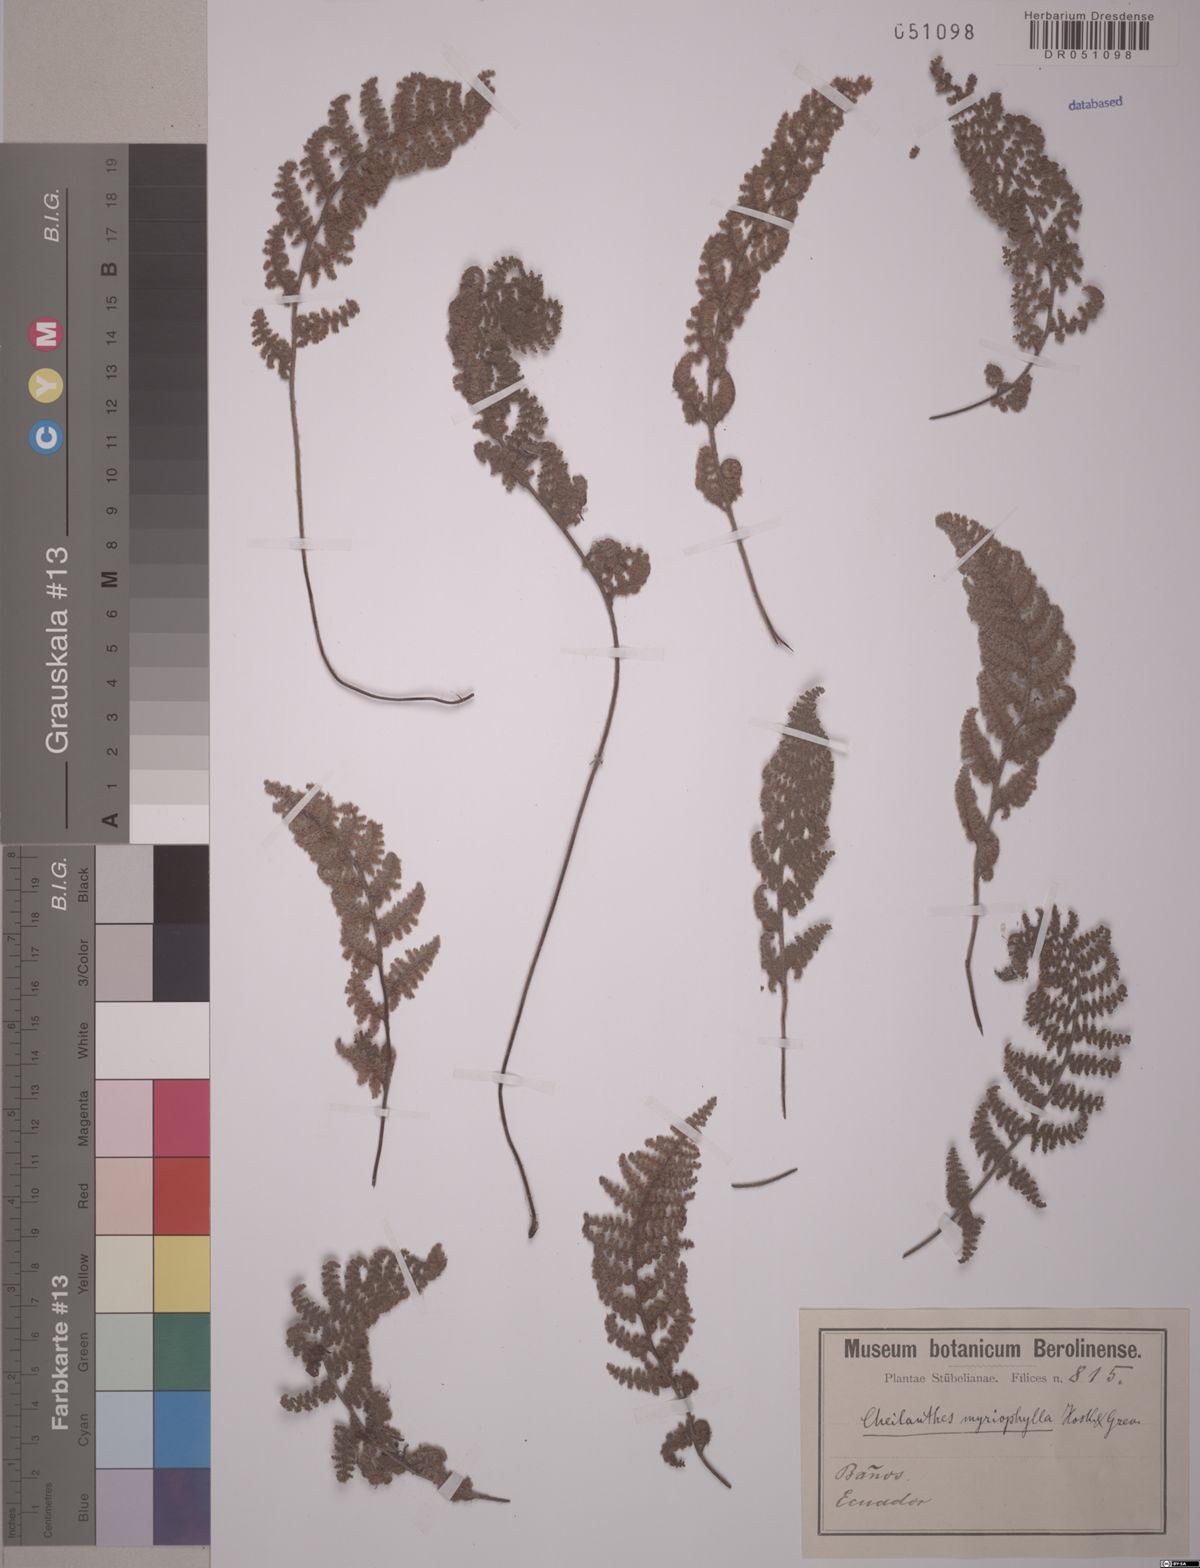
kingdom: Plantae
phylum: Tracheophyta
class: Polypodiopsida
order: Polypodiales
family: Pteridaceae
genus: Myriopteris
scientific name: Myriopteris myriophylla
